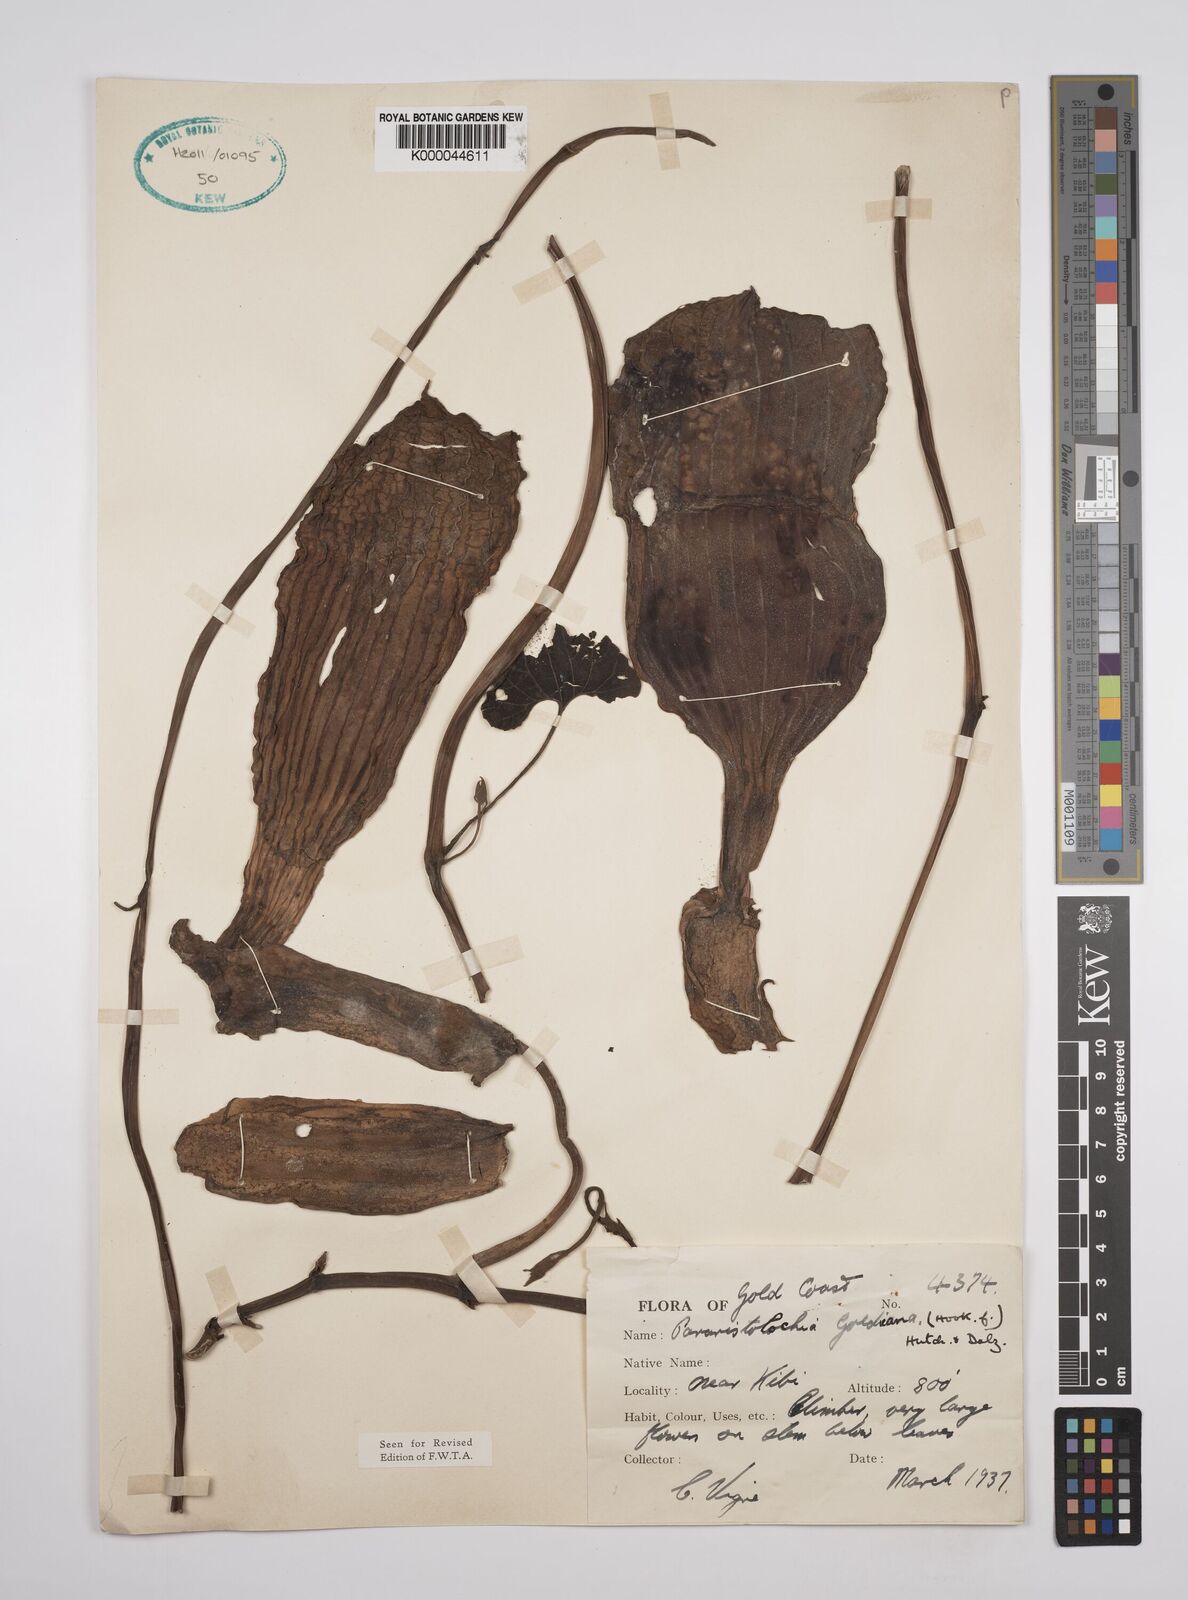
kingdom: Plantae
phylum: Tracheophyta
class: Magnoliopsida
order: Piperales
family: Aristolochiaceae
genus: Aristolochia
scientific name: Aristolochia goldieana
